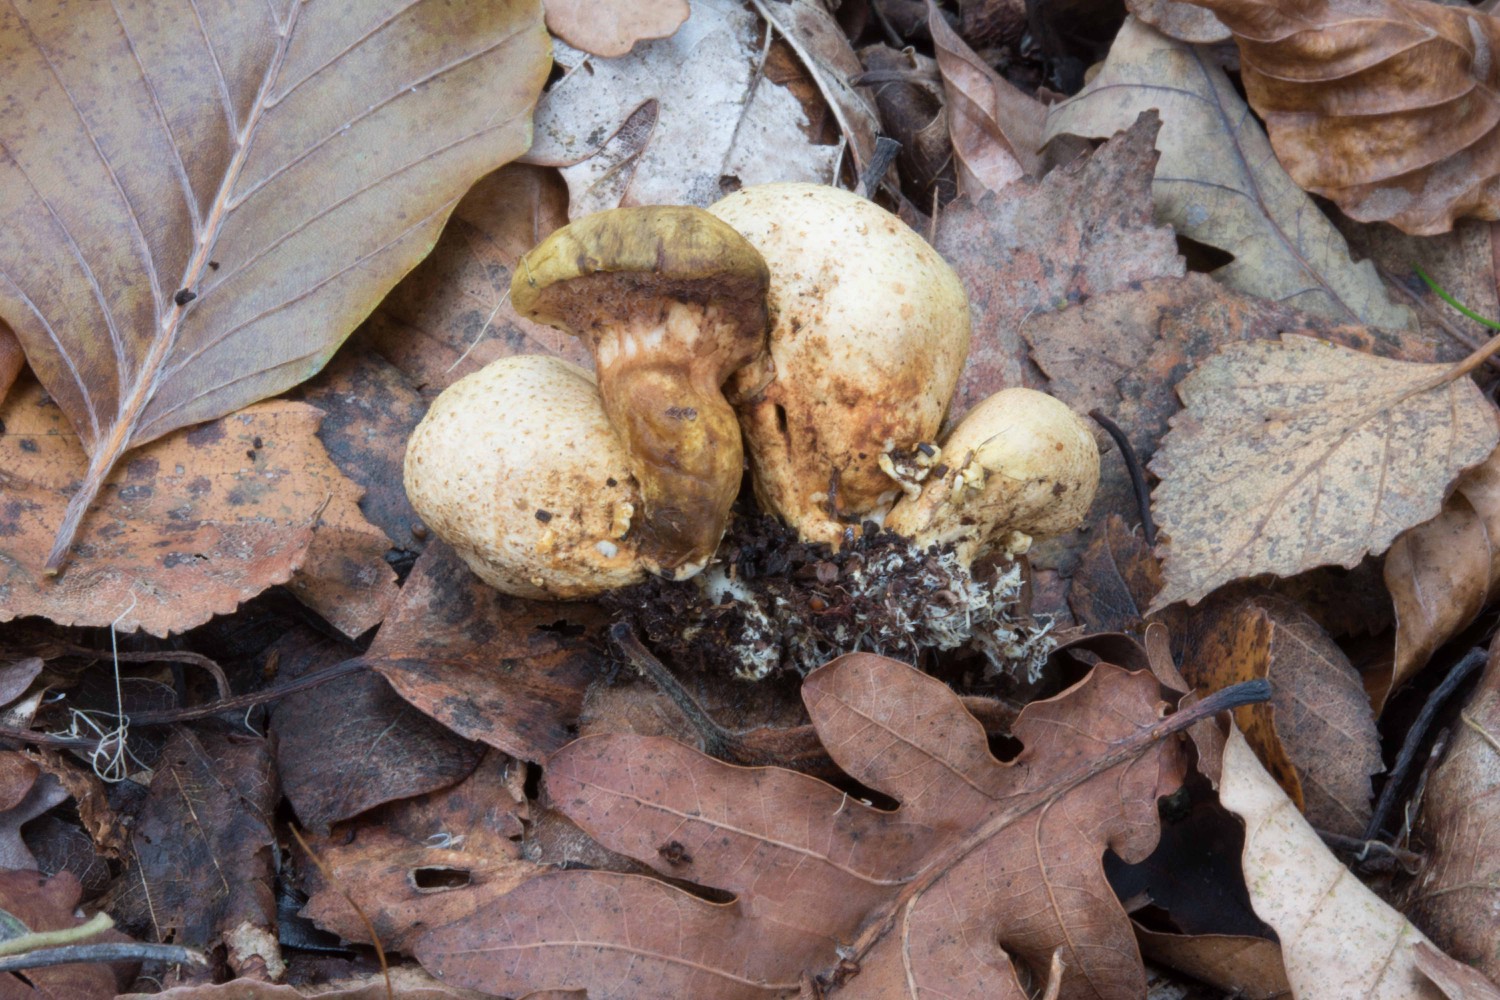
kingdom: Fungi
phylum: Basidiomycota
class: Agaricomycetes
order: Boletales
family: Boletaceae
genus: Pseudoboletus
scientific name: Pseudoboletus parasiticus
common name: snyltende rørhat
